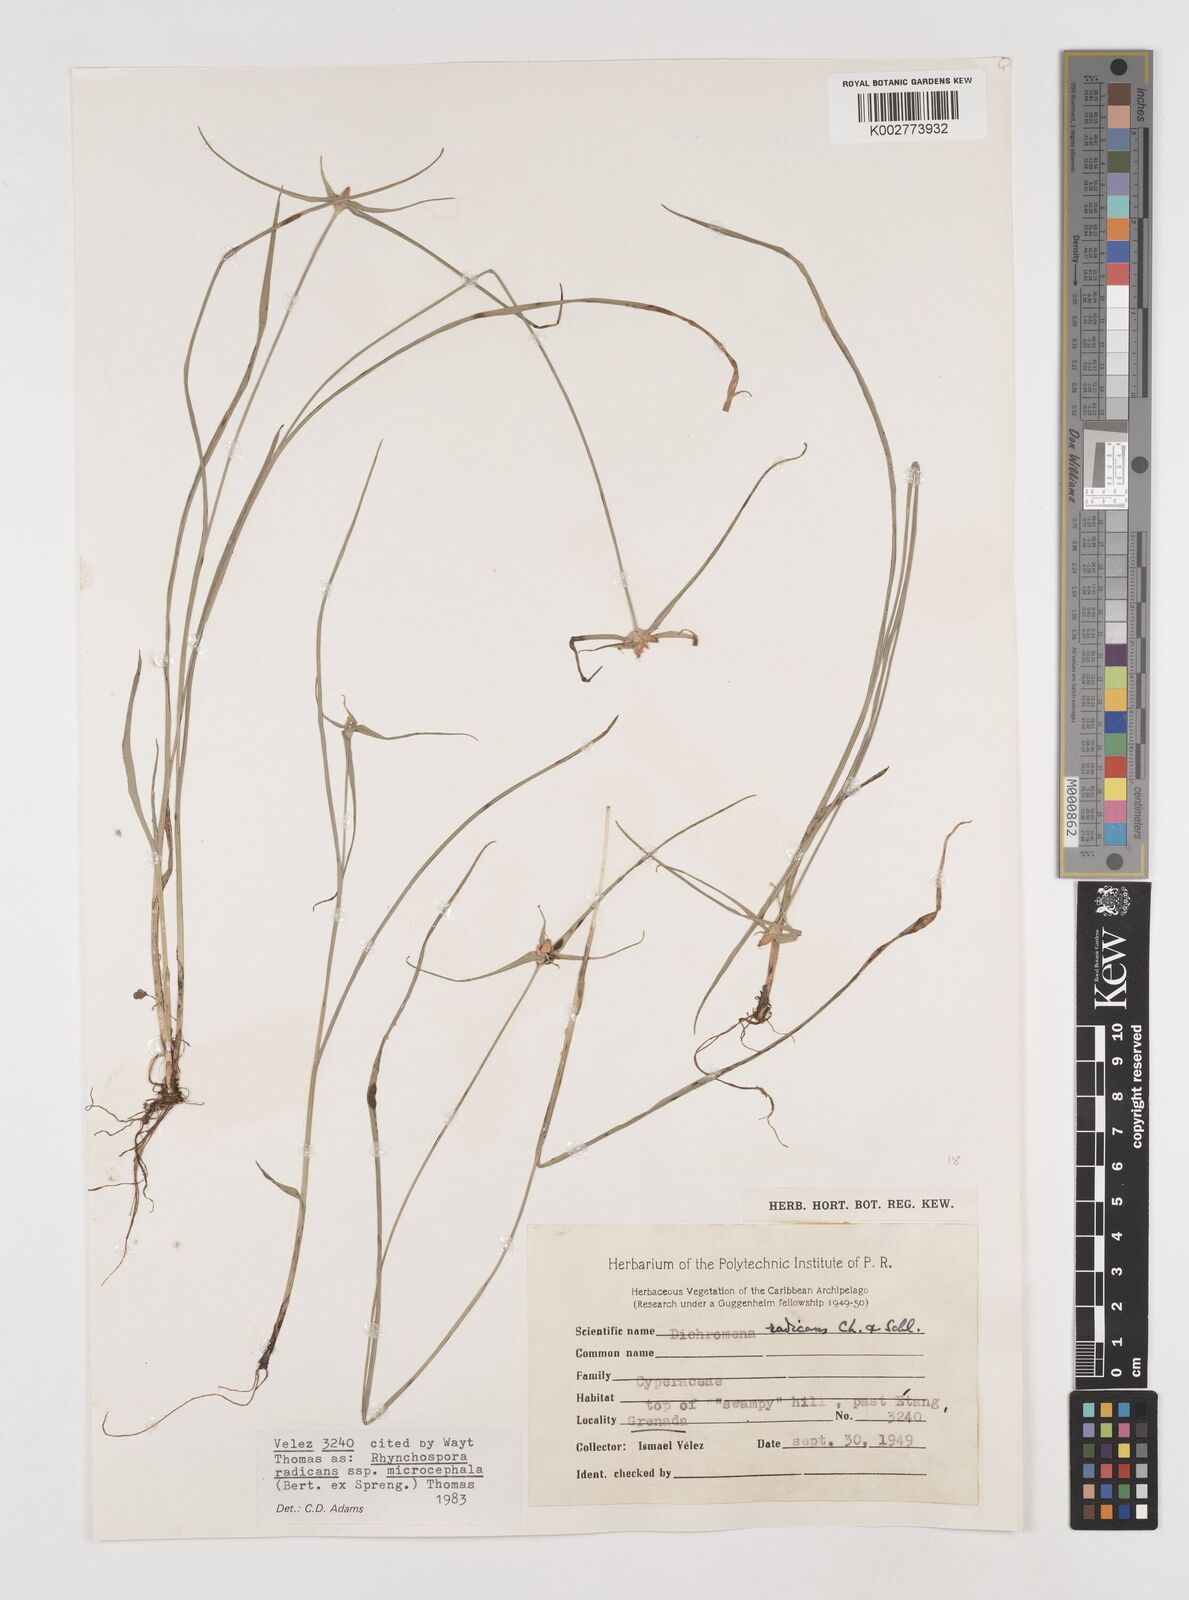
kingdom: Plantae
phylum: Tracheophyta
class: Liliopsida
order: Poales
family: Cyperaceae
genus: Rhynchospora
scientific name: Rhynchospora radicans
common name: Tropical whitetop
